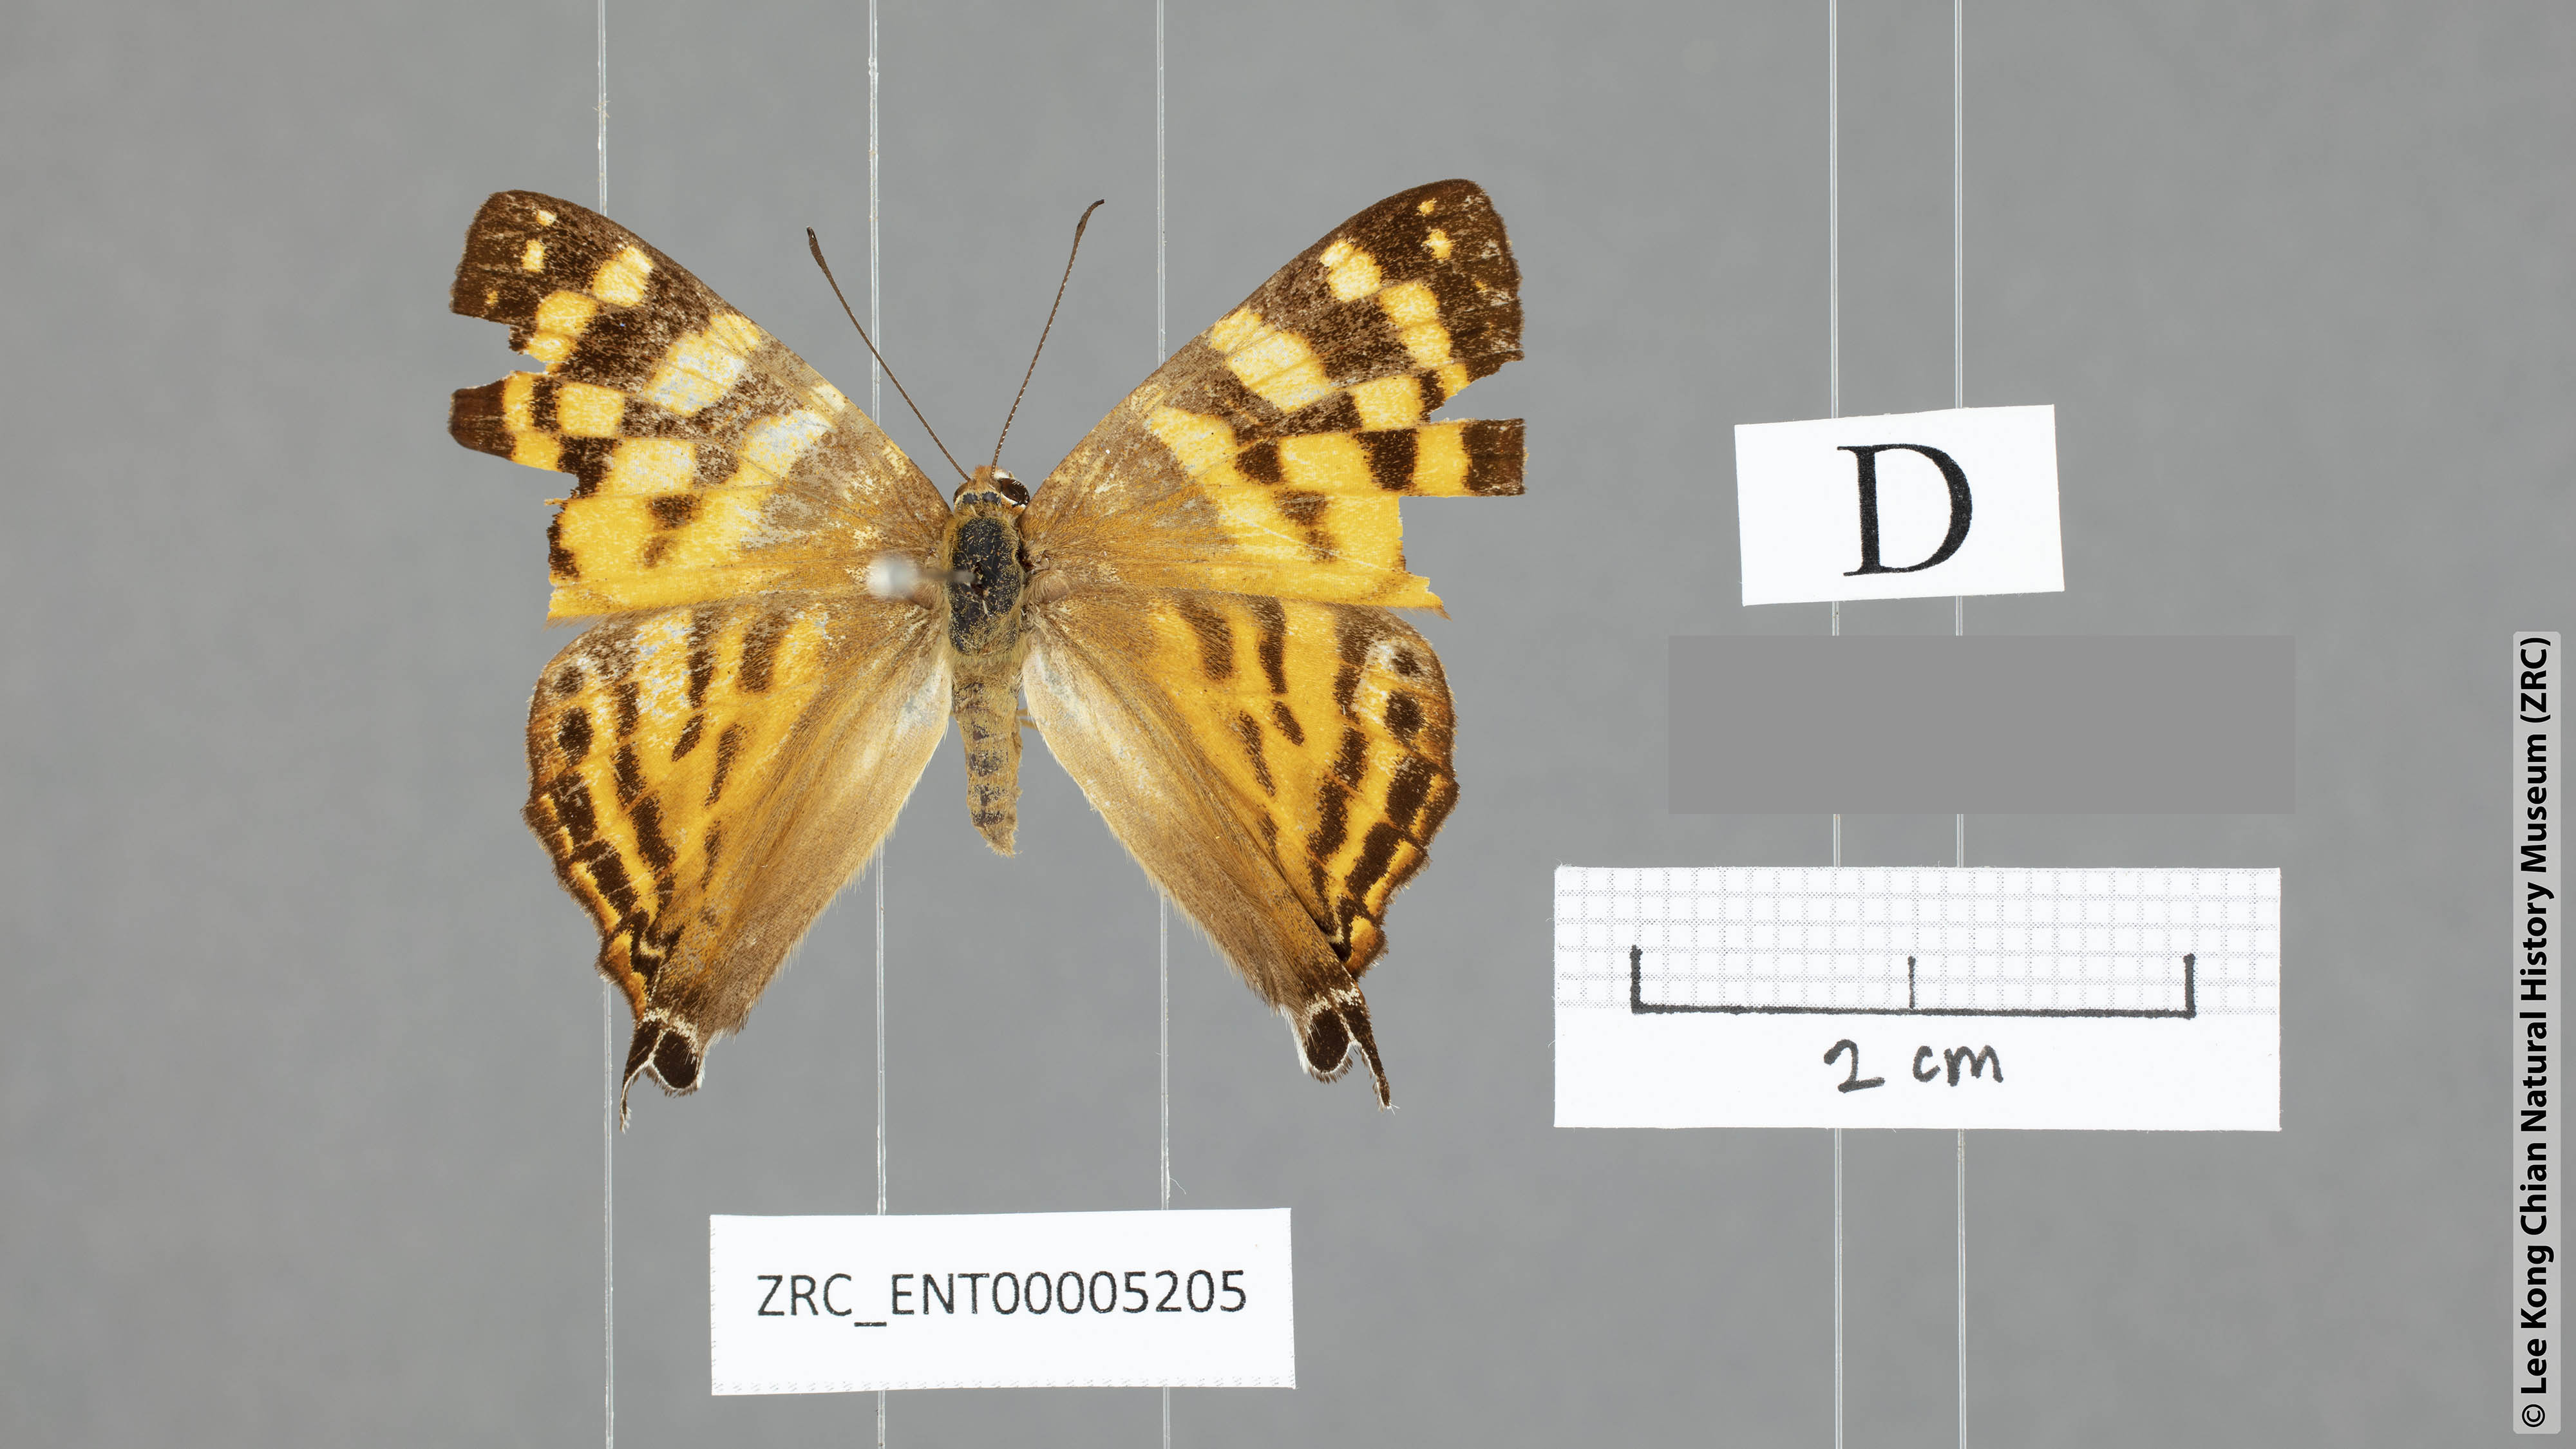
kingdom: Animalia
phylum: Arthropoda
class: Insecta
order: Lepidoptera
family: Lycaenidae
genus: Dodona
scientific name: Dodona egeon
